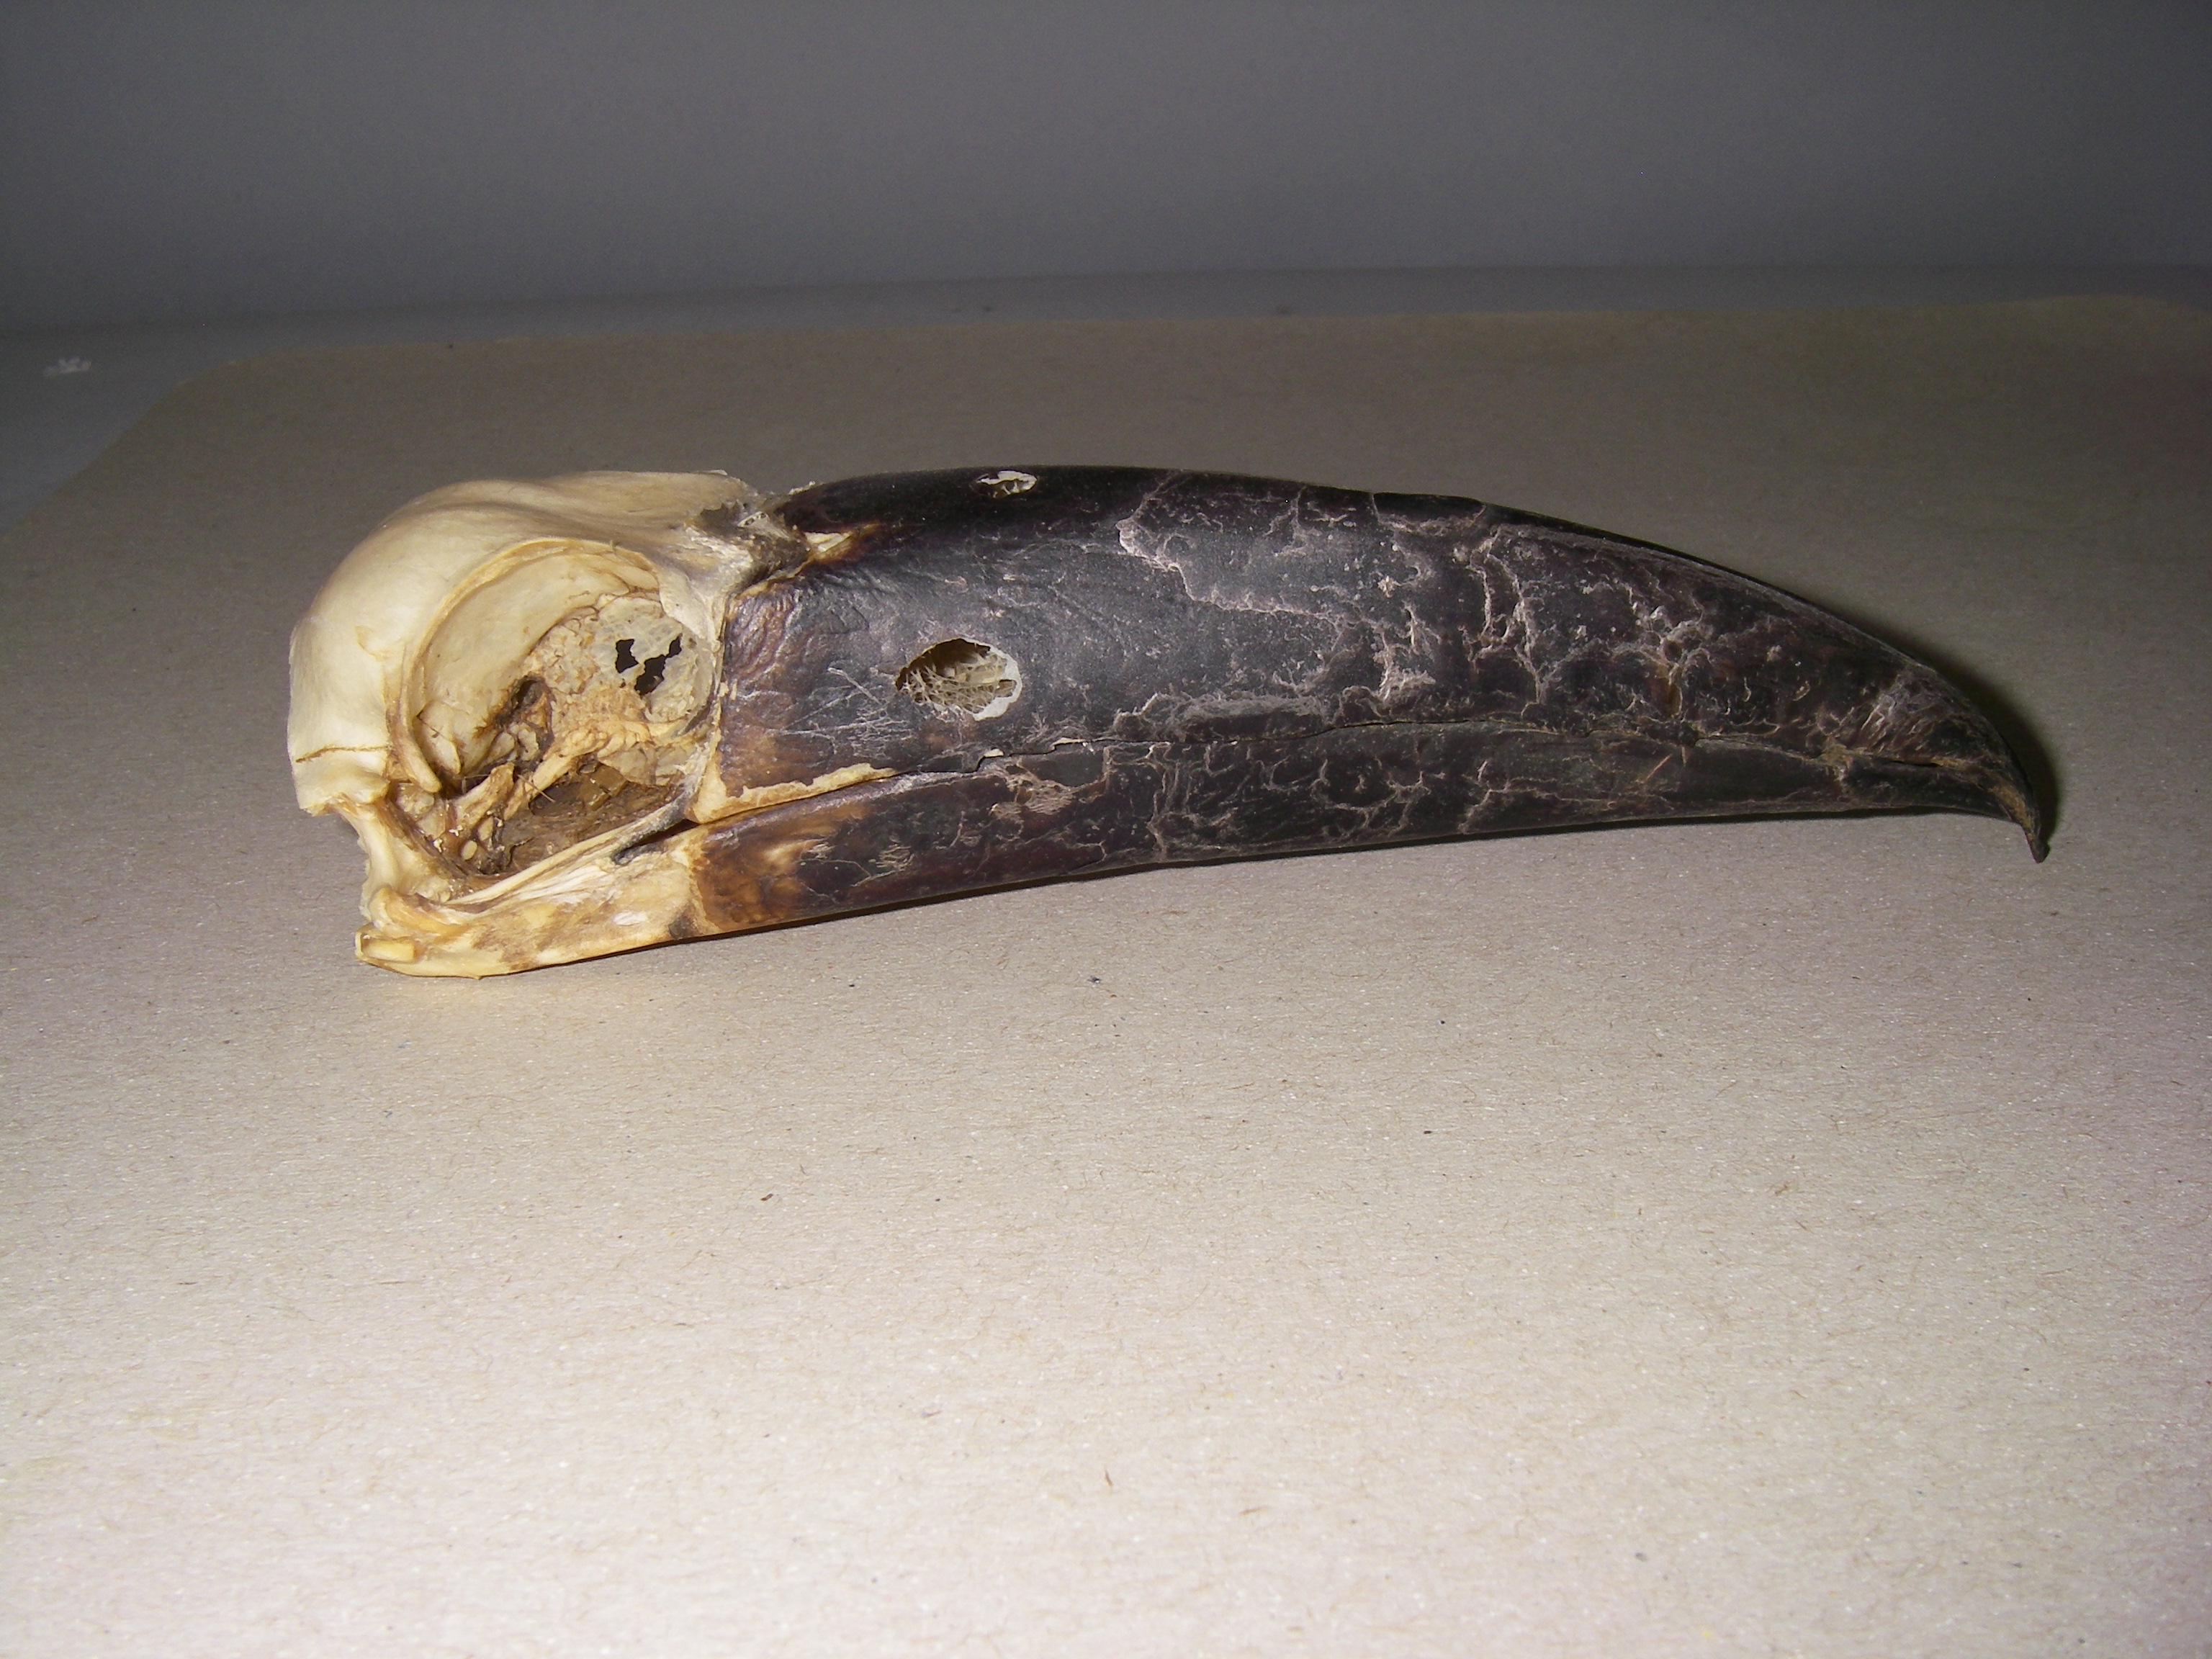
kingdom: Animalia
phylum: Chordata
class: Aves
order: Piciformes
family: Ramphastidae
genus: Andigena
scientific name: Andigena nigrirostris
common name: Black-billed mountain toucan
